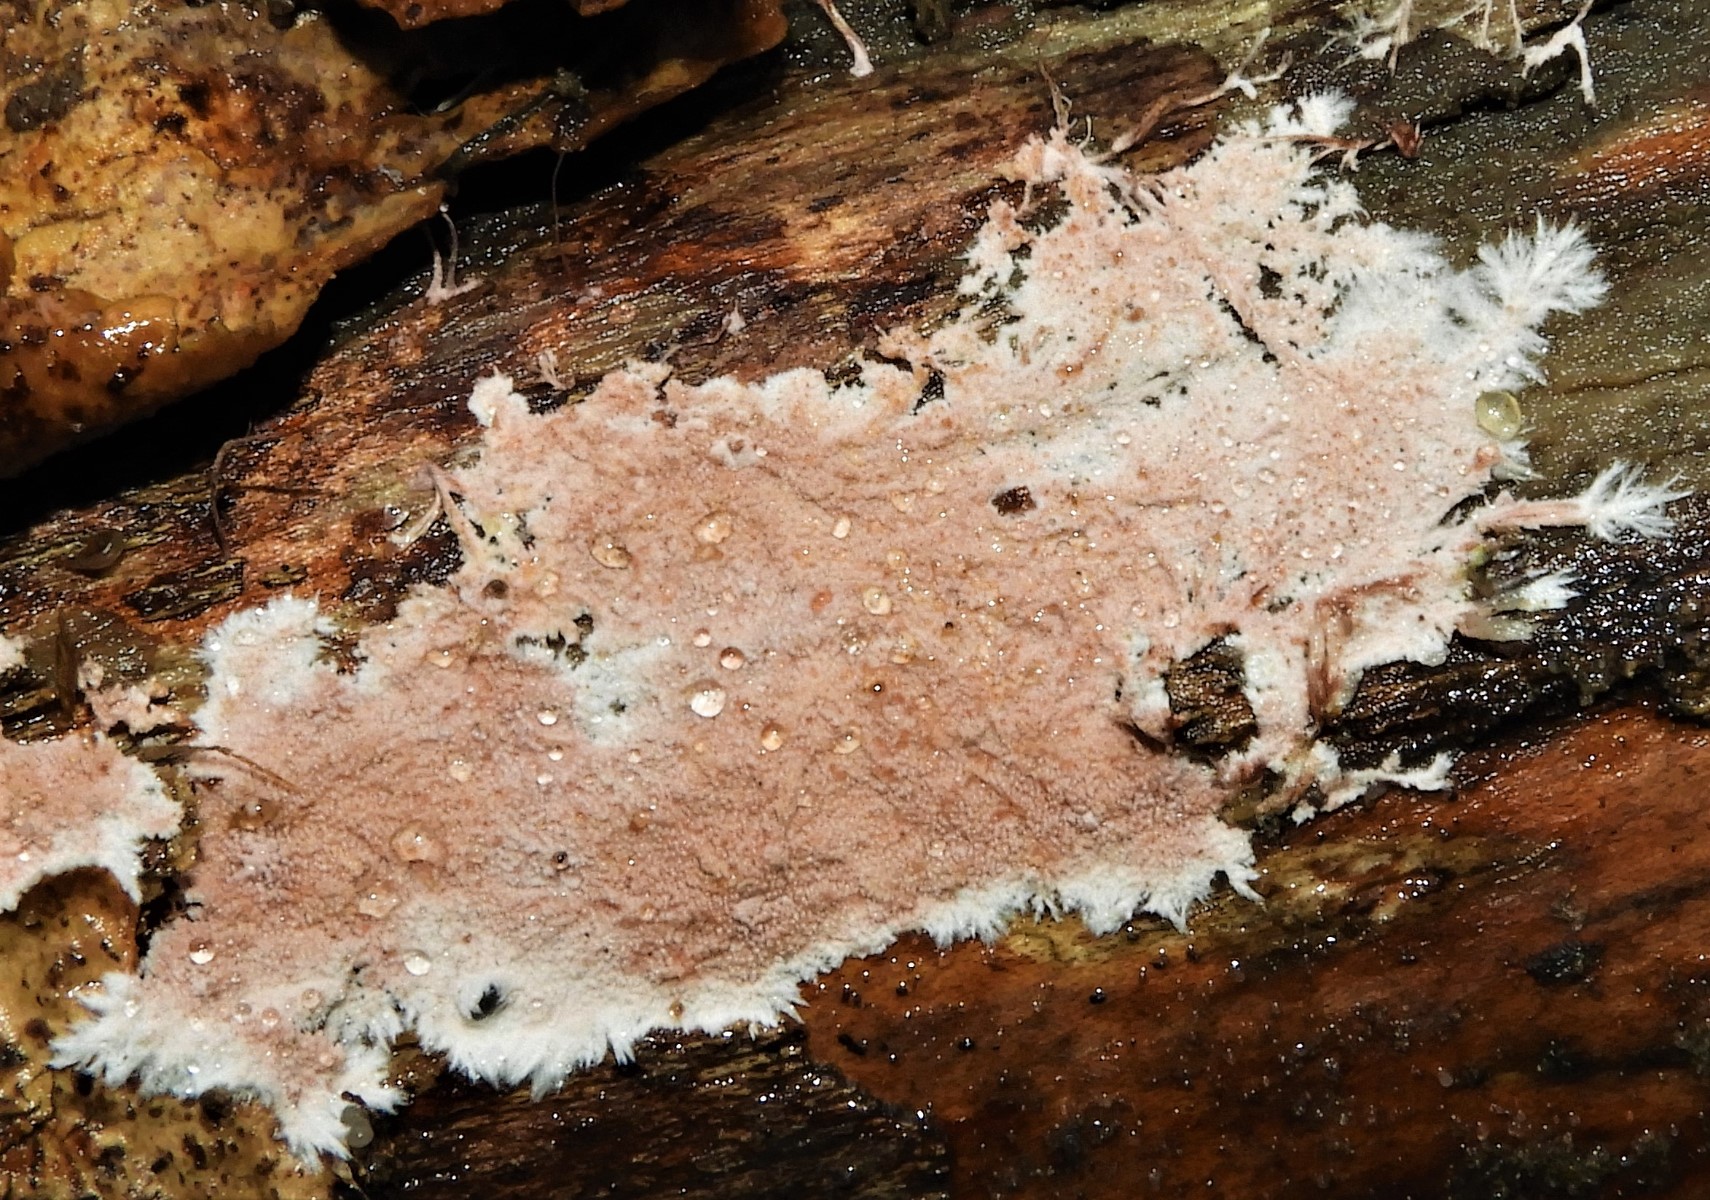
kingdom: Fungi
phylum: Basidiomycota
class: Agaricomycetes
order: Polyporales
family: Steccherinaceae
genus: Steccherinum
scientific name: Steccherinum fimbriatum
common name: trådet skønpig
